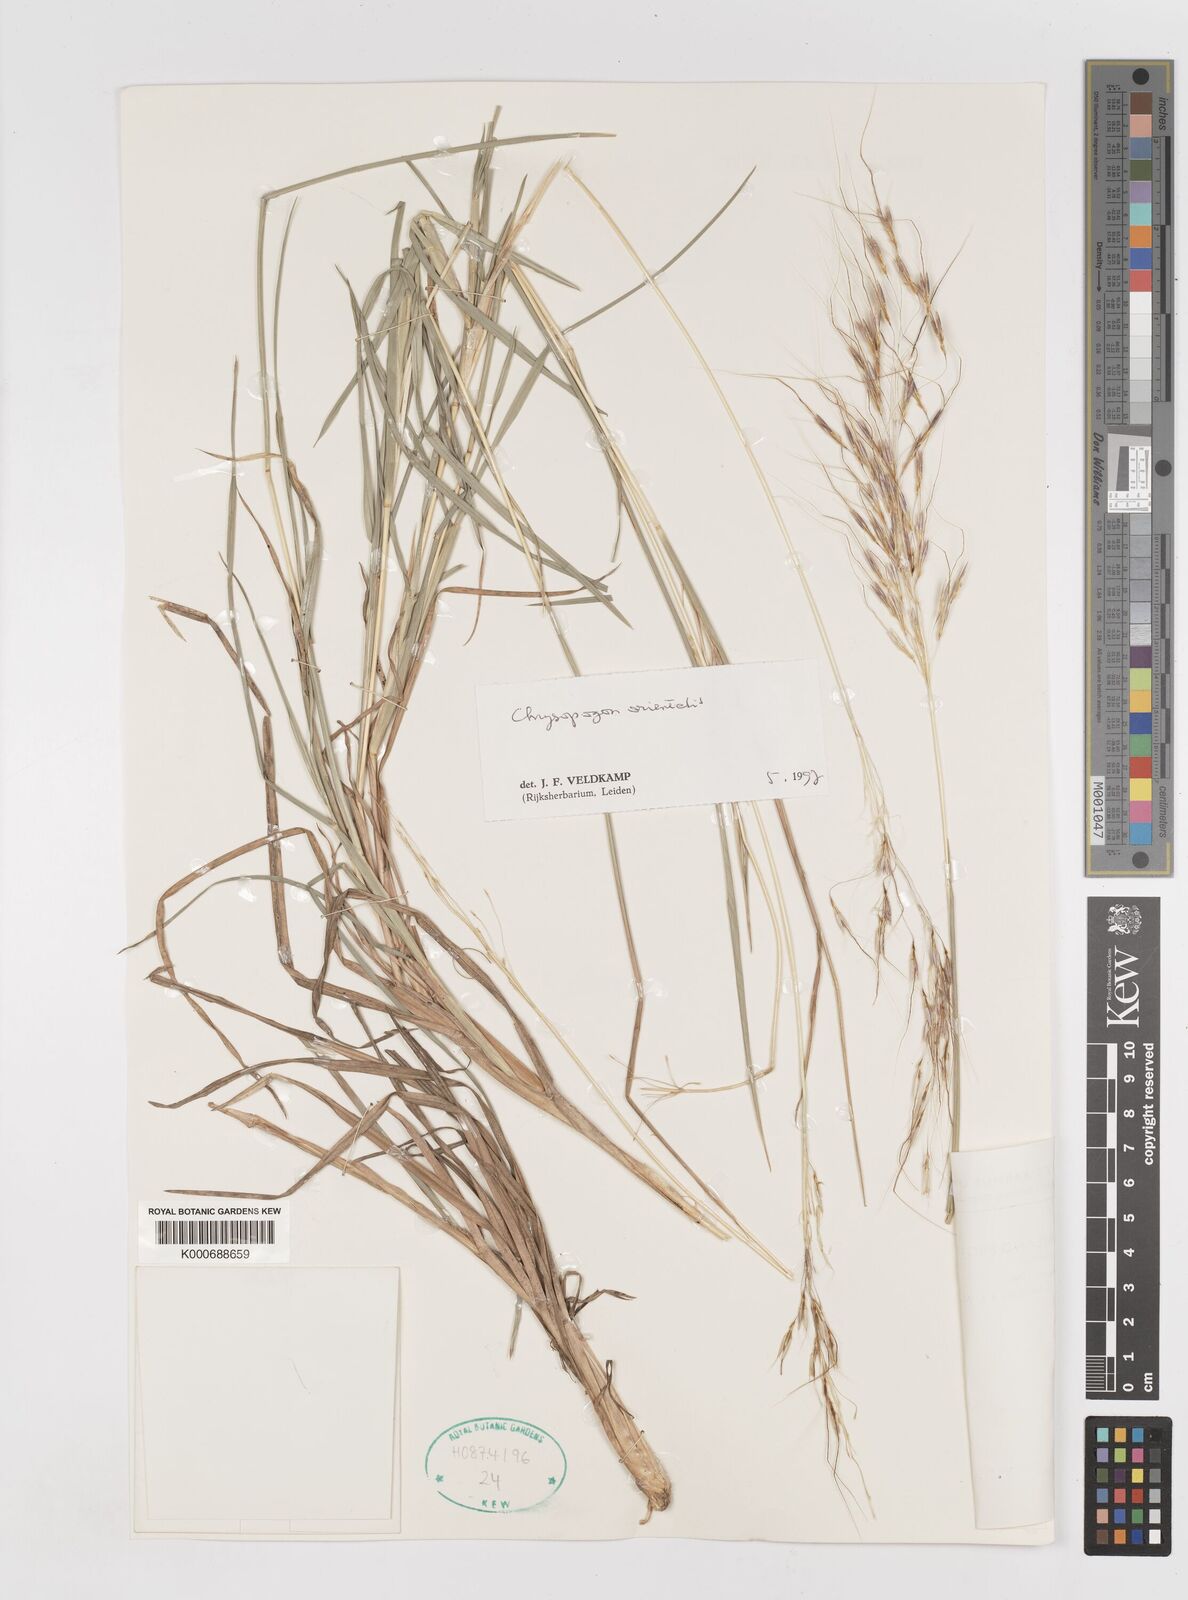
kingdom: Plantae
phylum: Tracheophyta
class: Liliopsida
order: Poales
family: Poaceae
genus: Chrysopogon
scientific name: Chrysopogon orientalis
